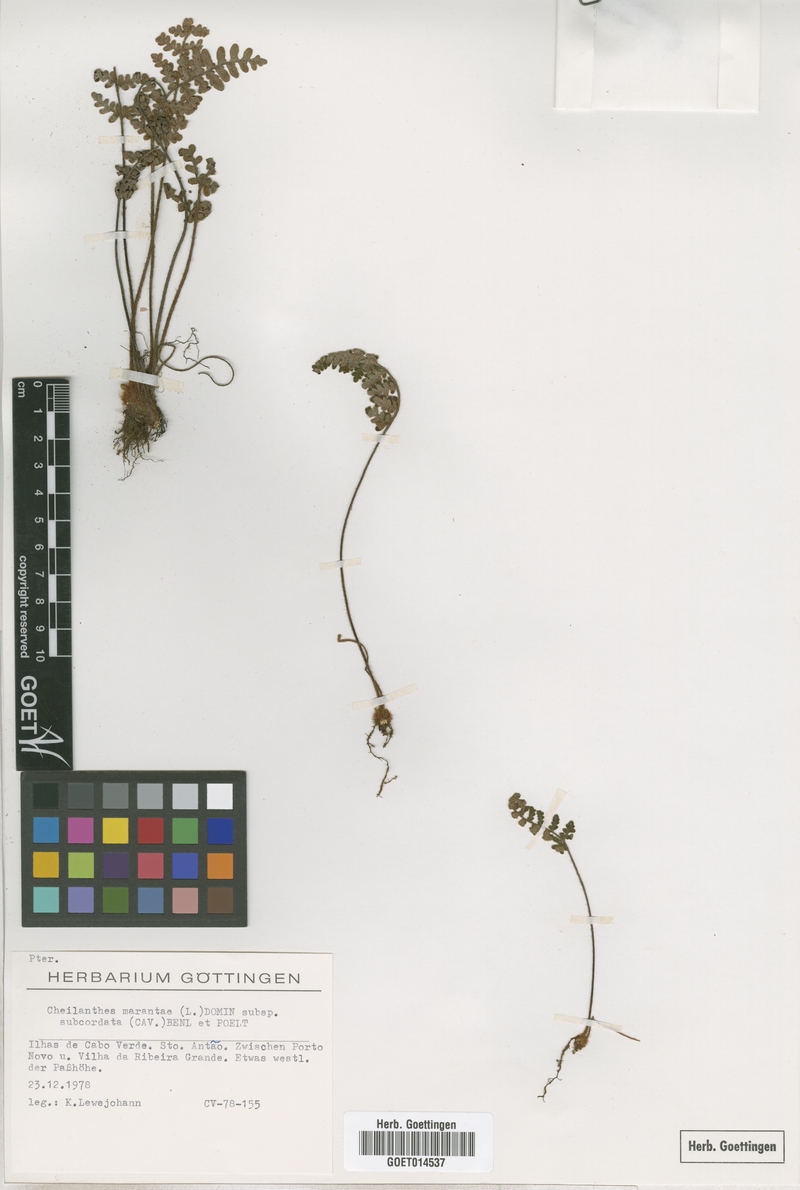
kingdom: Plantae
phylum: Tracheophyta
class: Polypodiopsida
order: Polypodiales
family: Pteridaceae
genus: Paragymnopteris
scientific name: Paragymnopteris marantae
